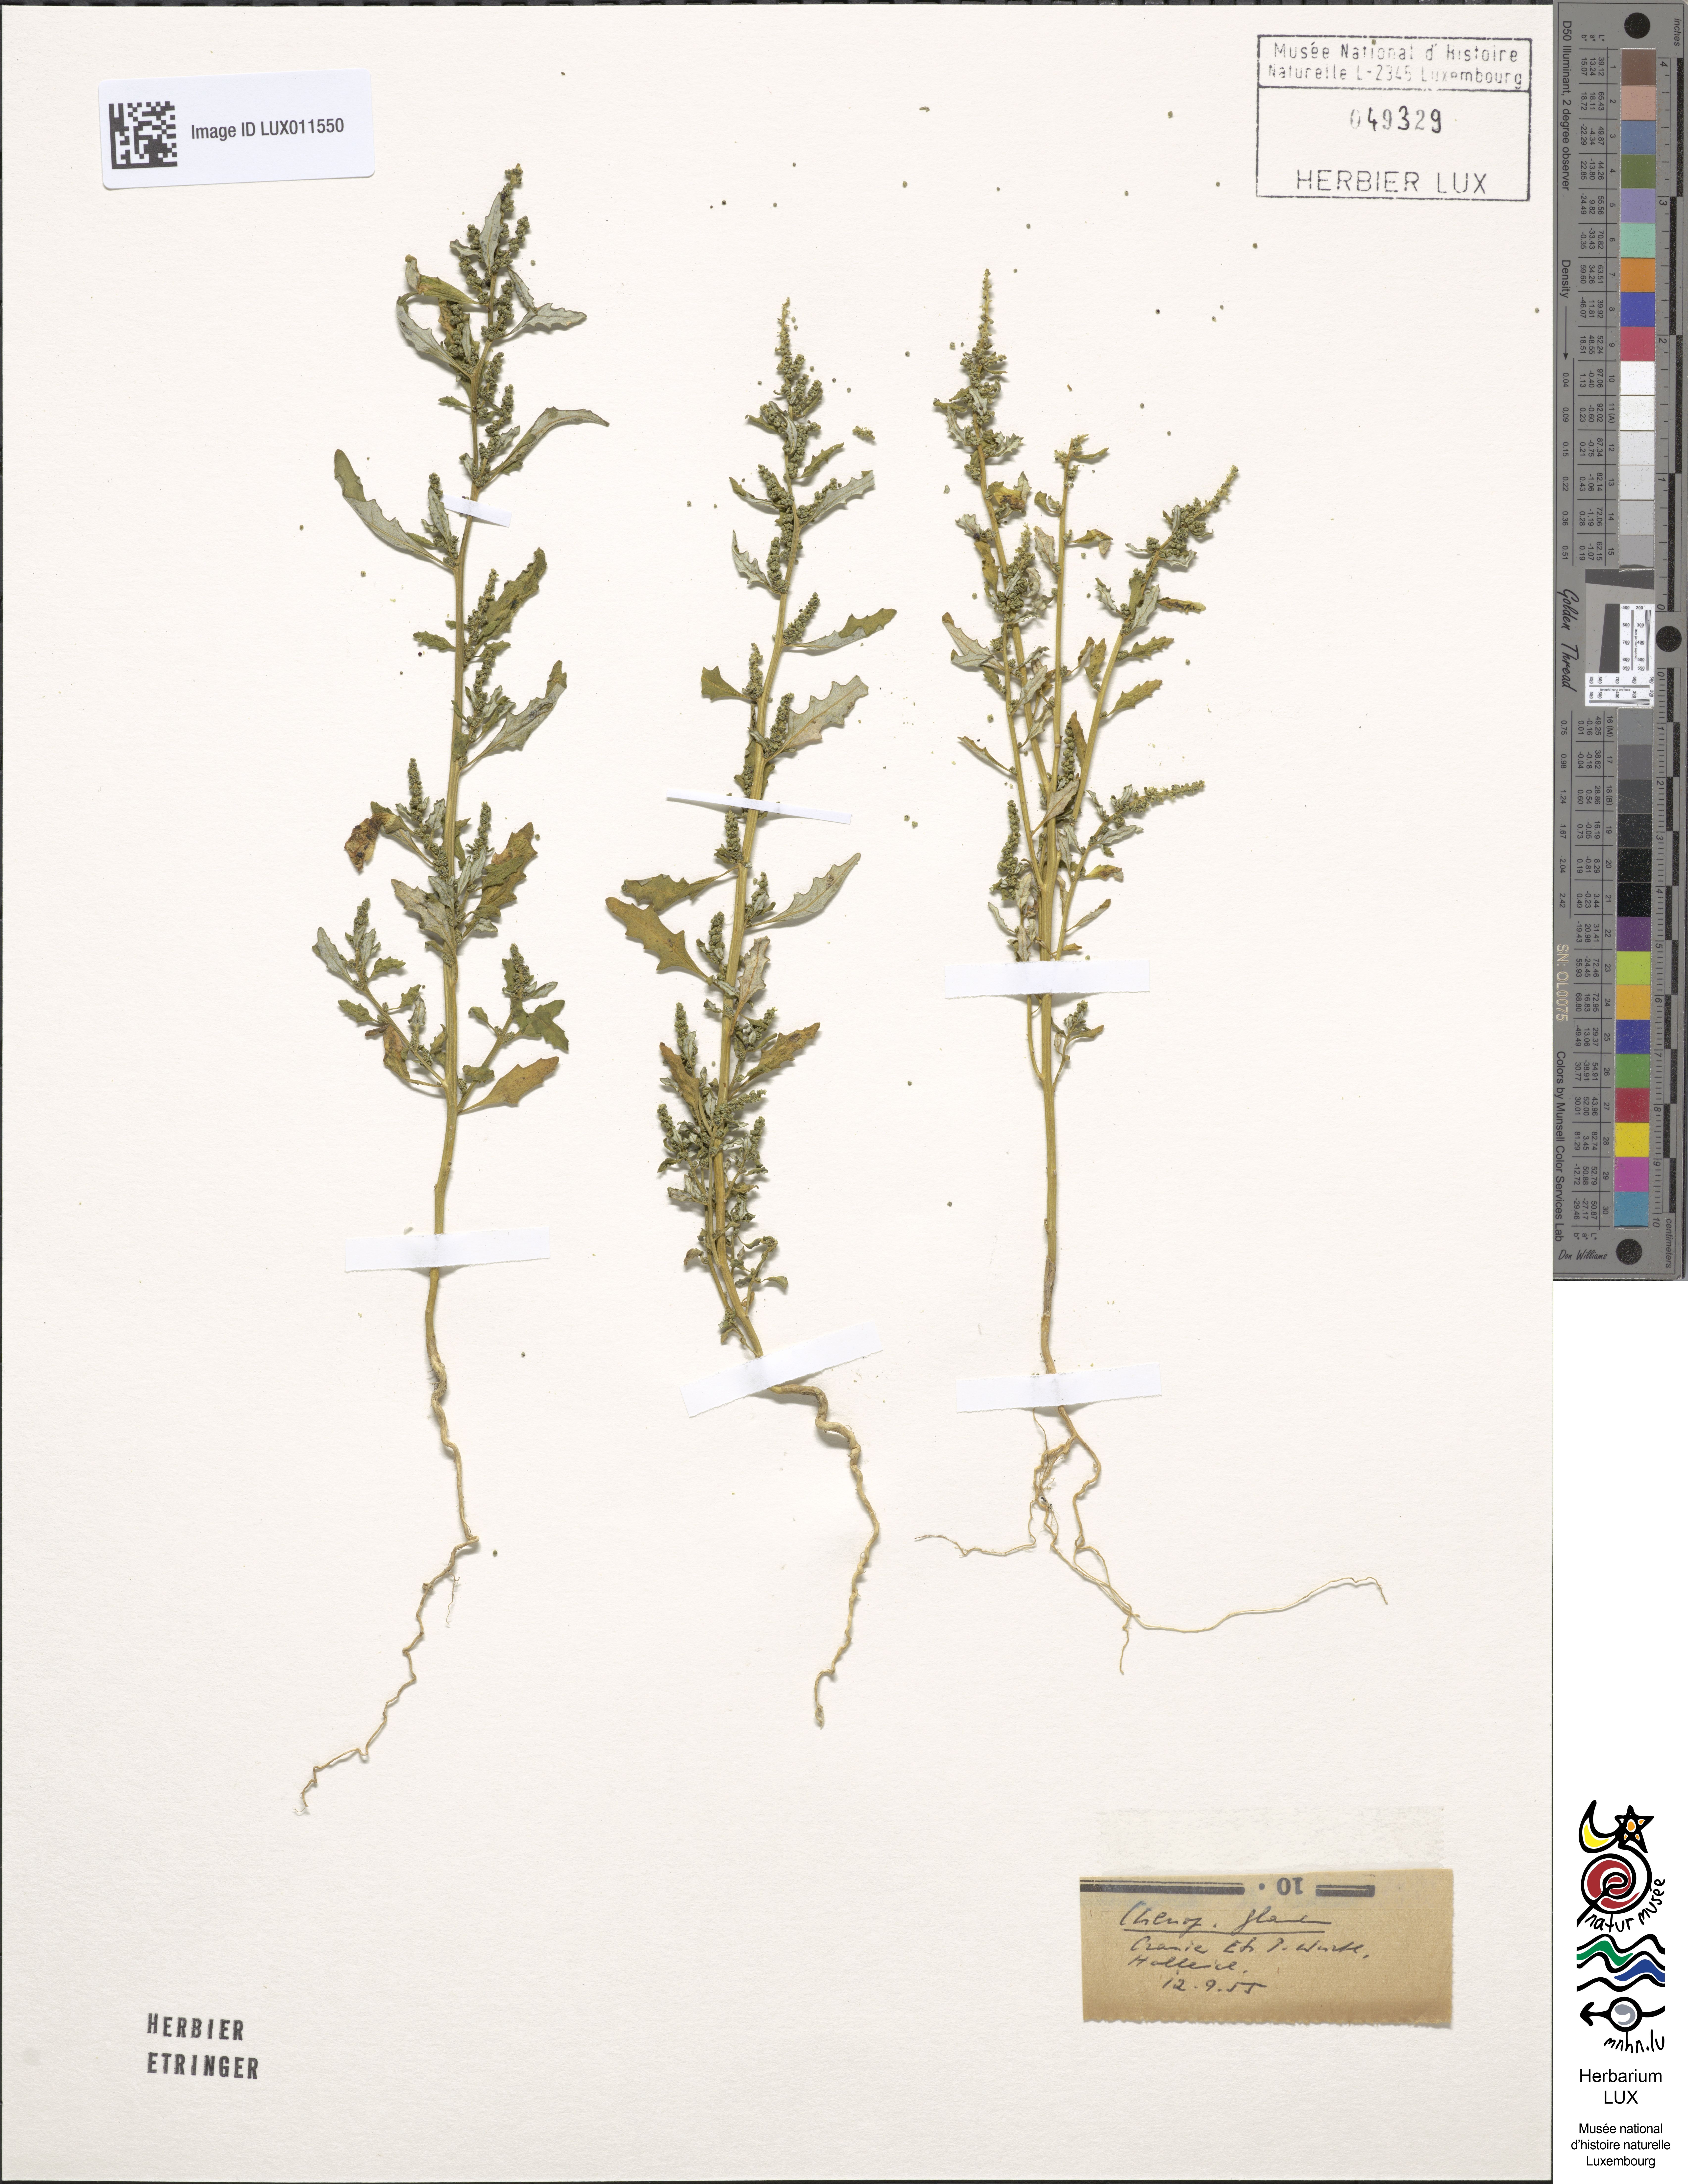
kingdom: Plantae
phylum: Tracheophyta
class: Magnoliopsida
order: Caryophyllales
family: Amaranthaceae
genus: Oxybasis
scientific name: Oxybasis glauca
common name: Glaucous goosefoot
